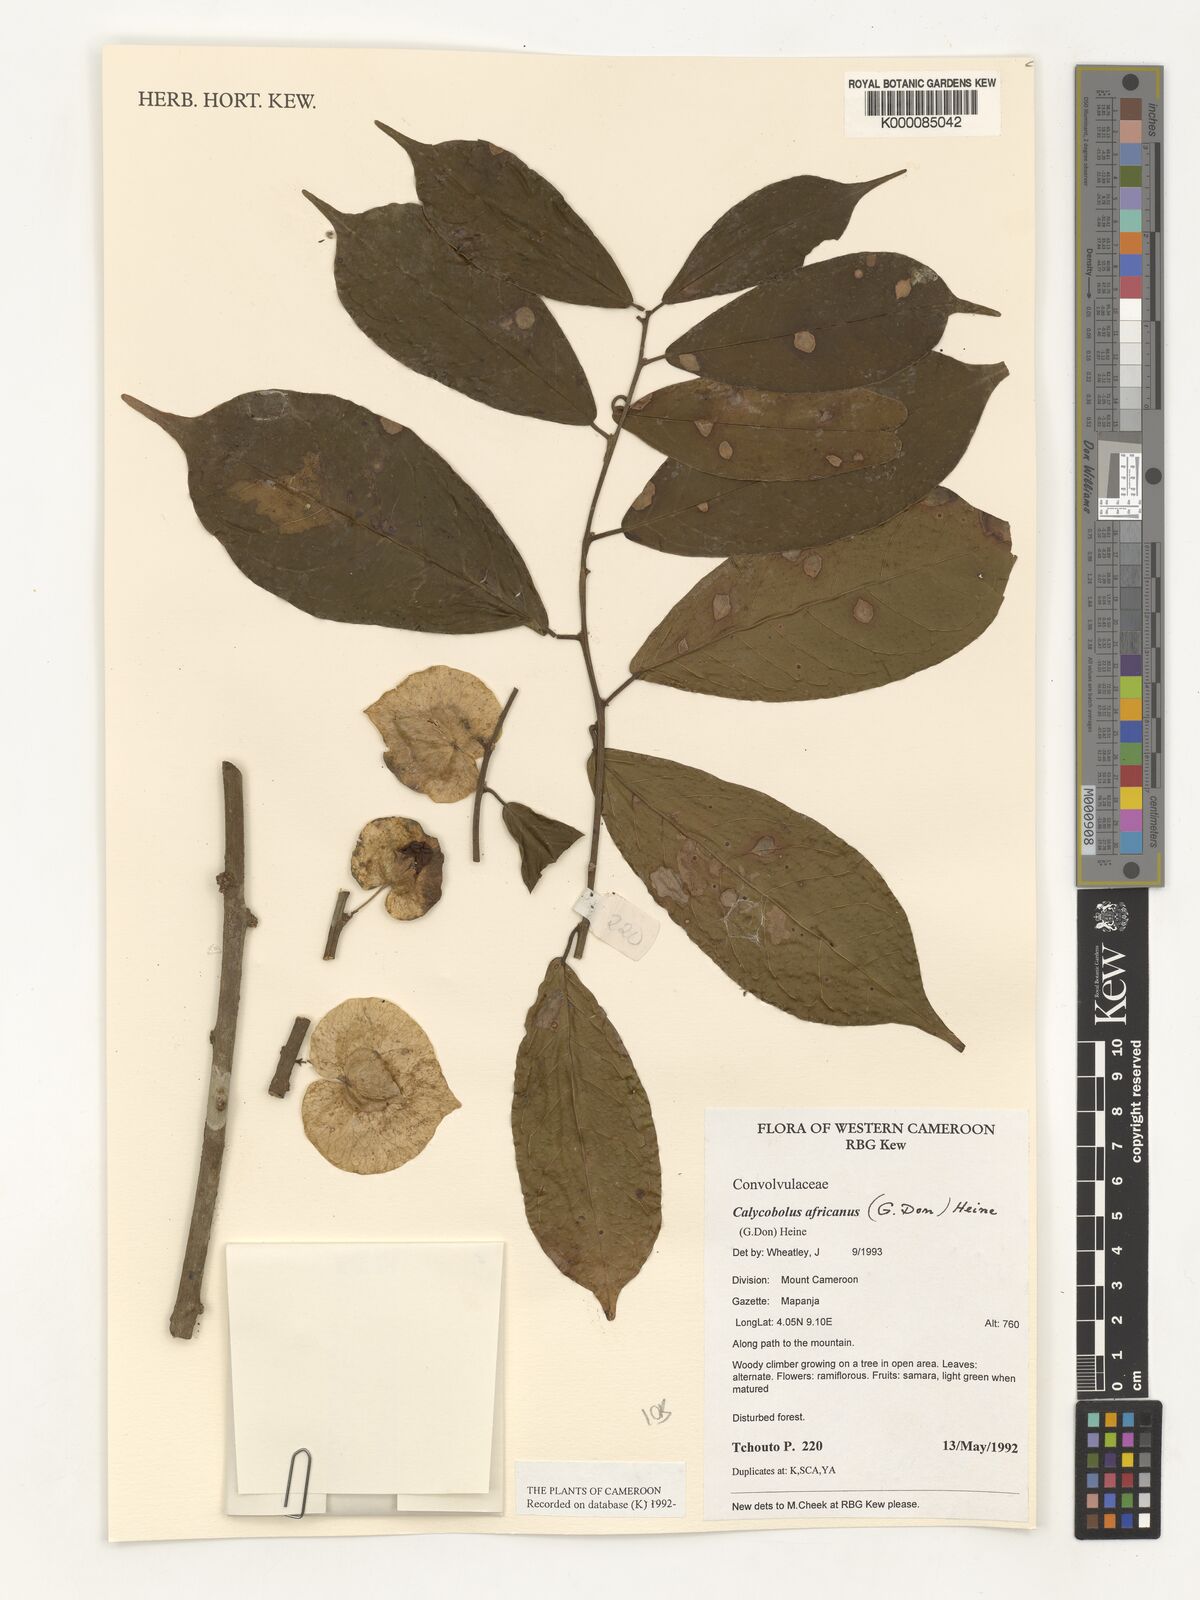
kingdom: Plantae
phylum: Tracheophyta
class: Magnoliopsida
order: Solanales
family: Convolvulaceae
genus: Calycobolus
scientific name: Calycobolus africanus
